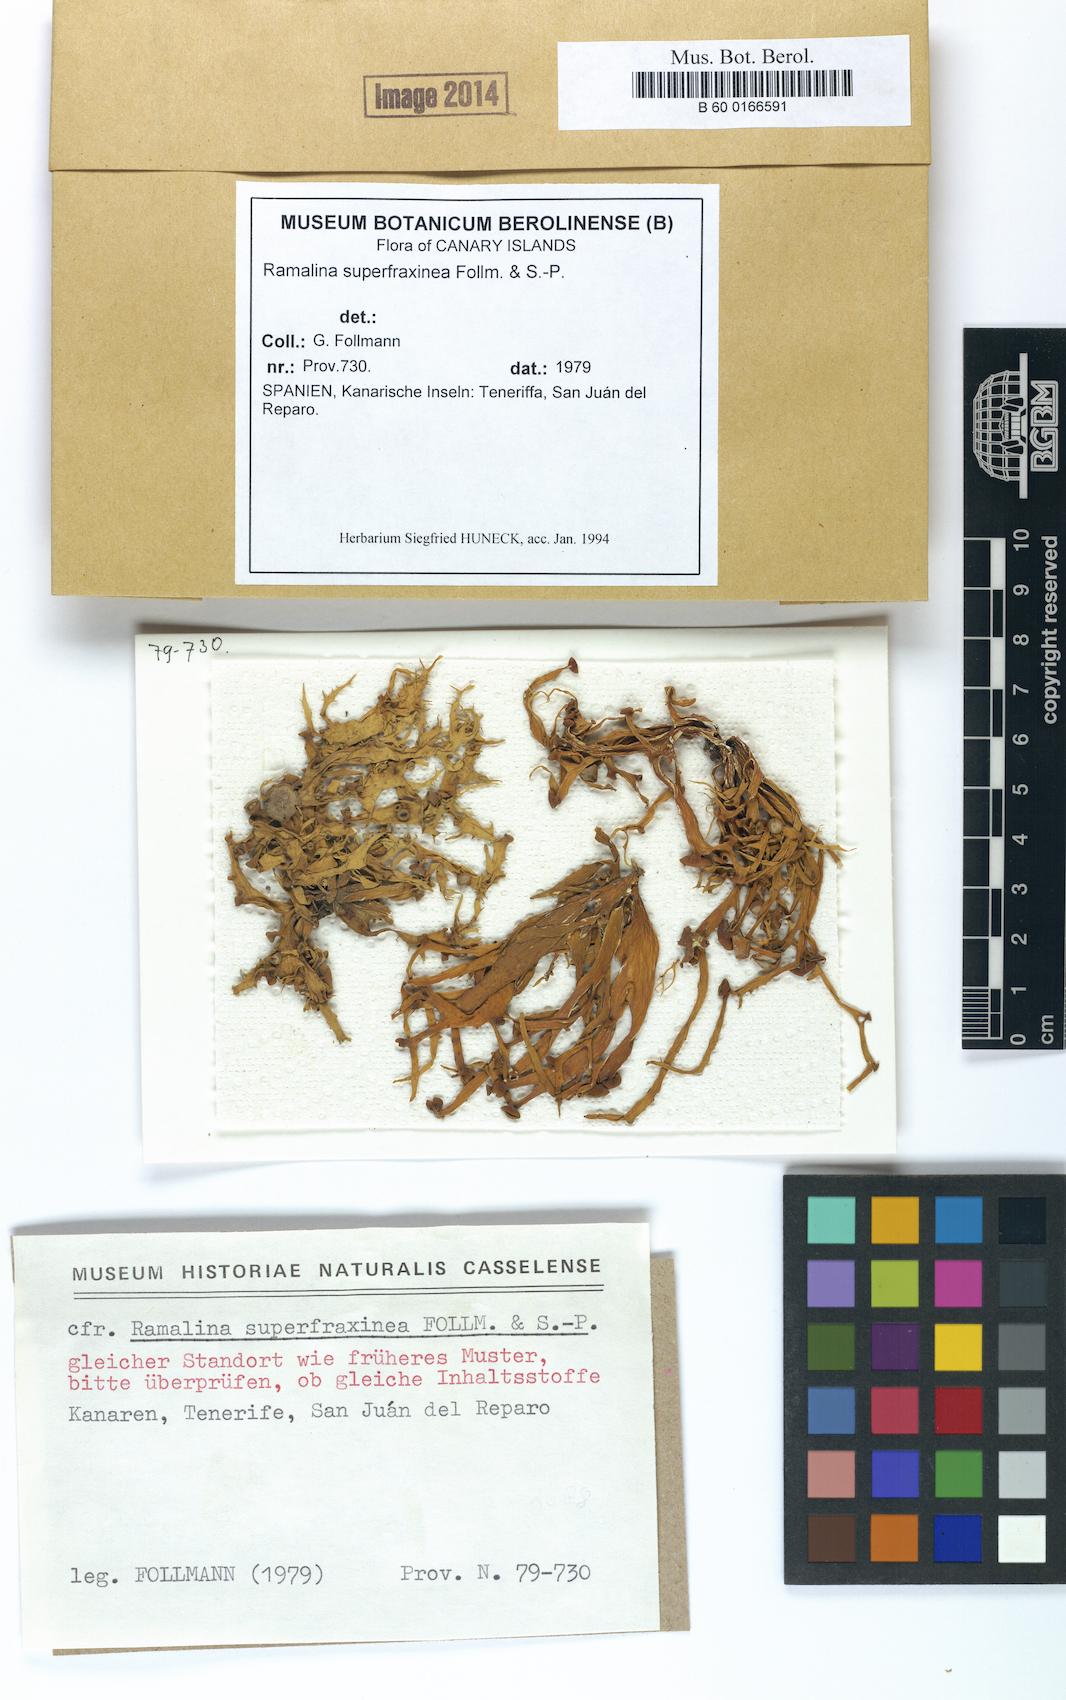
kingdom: Fungi
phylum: Ascomycota
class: Lecanoromycetes
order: Lecanorales
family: Ramalinaceae
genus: Ramalina
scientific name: Ramalina superfraxinea
